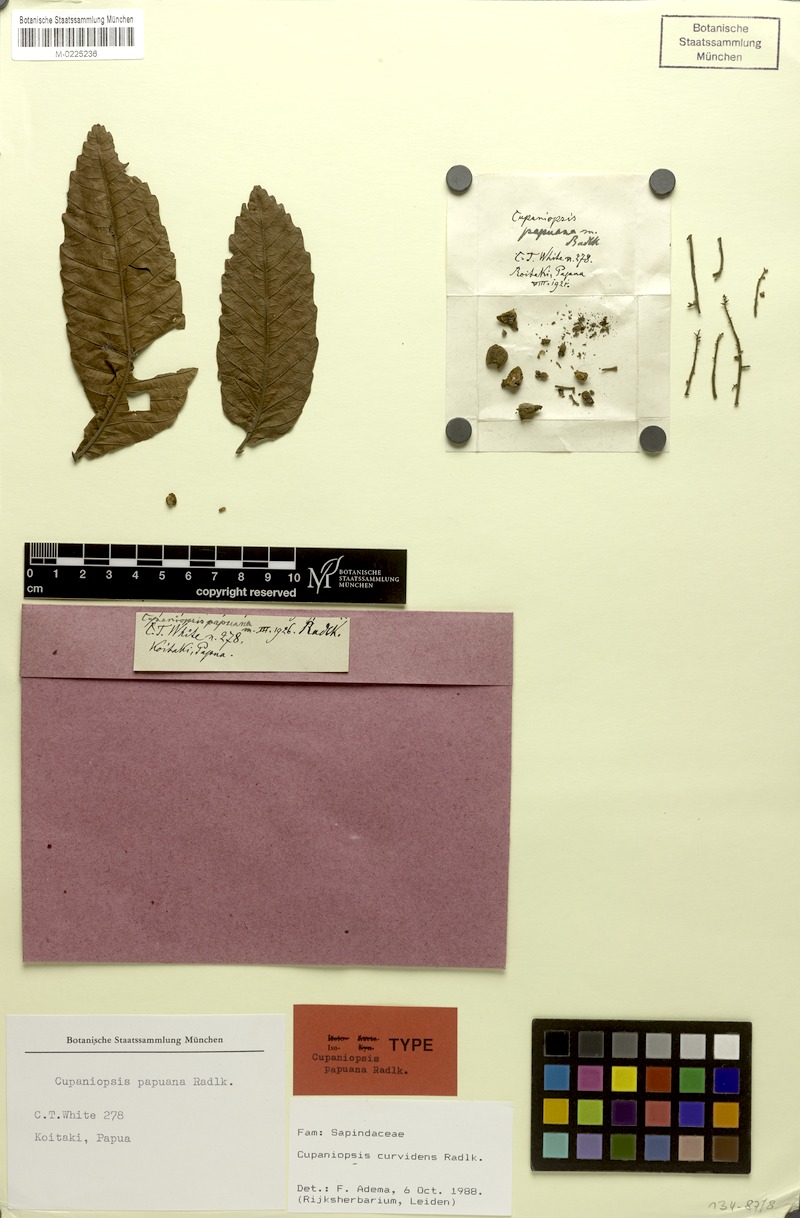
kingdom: Plantae
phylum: Tracheophyta
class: Magnoliopsida
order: Sapindales
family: Sapindaceae
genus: Cupaniopsis
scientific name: Cupaniopsis curvidens
